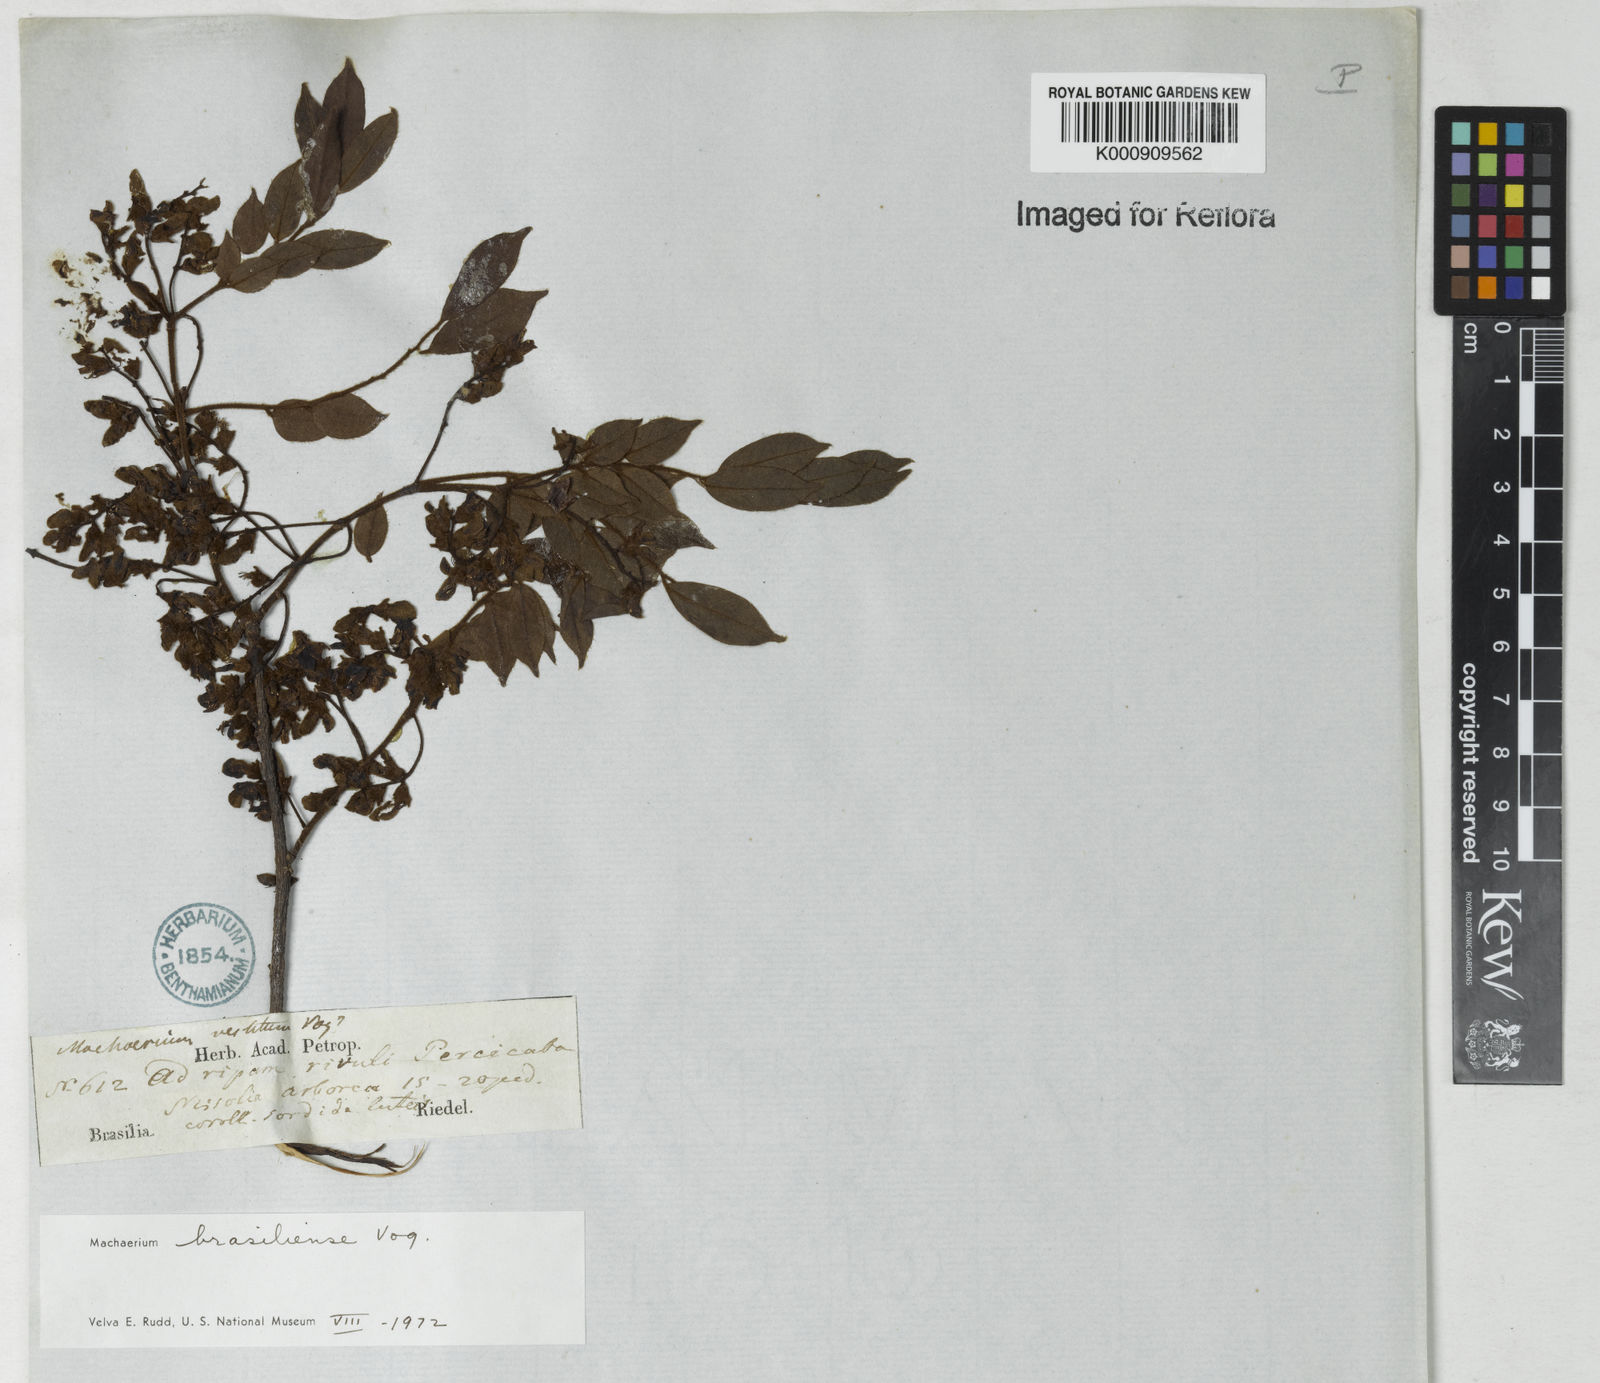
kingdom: Plantae
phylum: Tracheophyta
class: Magnoliopsida
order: Fabales
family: Fabaceae
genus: Machaerium
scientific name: Machaerium brasiliense
